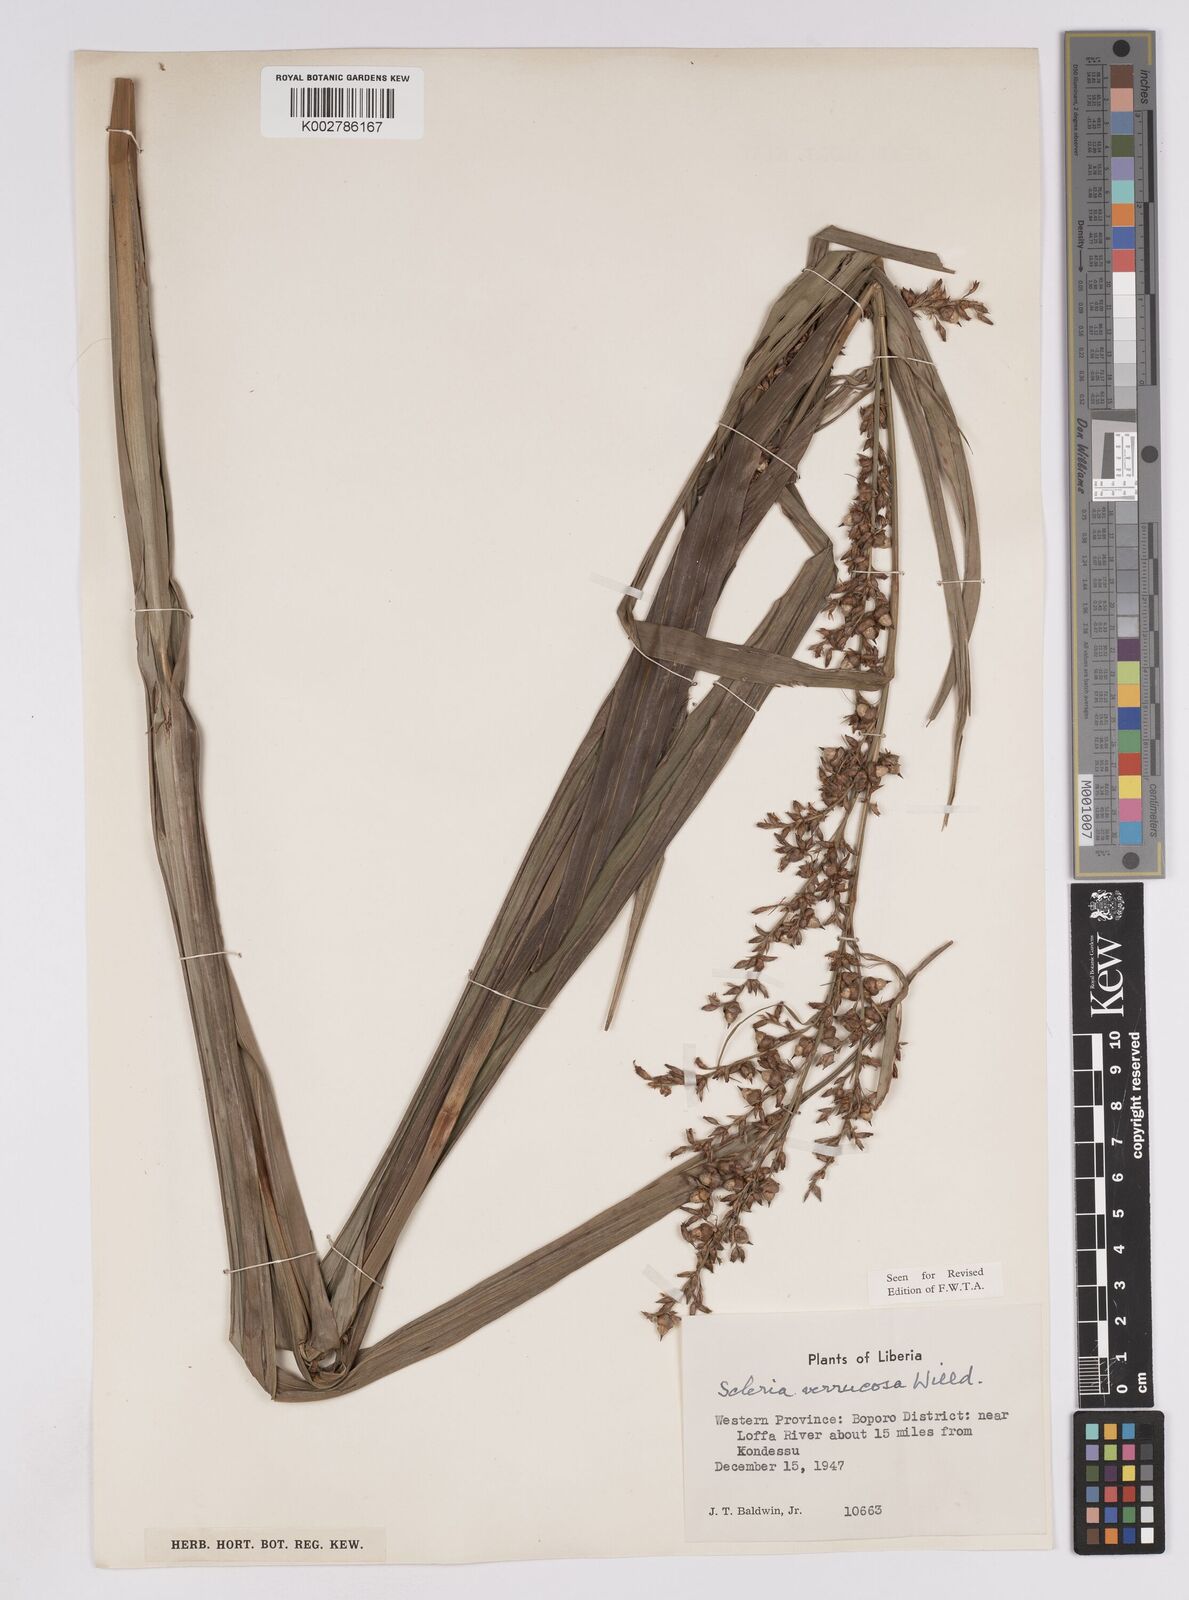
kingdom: Plantae
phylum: Tracheophyta
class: Liliopsida
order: Poales
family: Cyperaceae
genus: Scleria
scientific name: Scleria verrucosa
